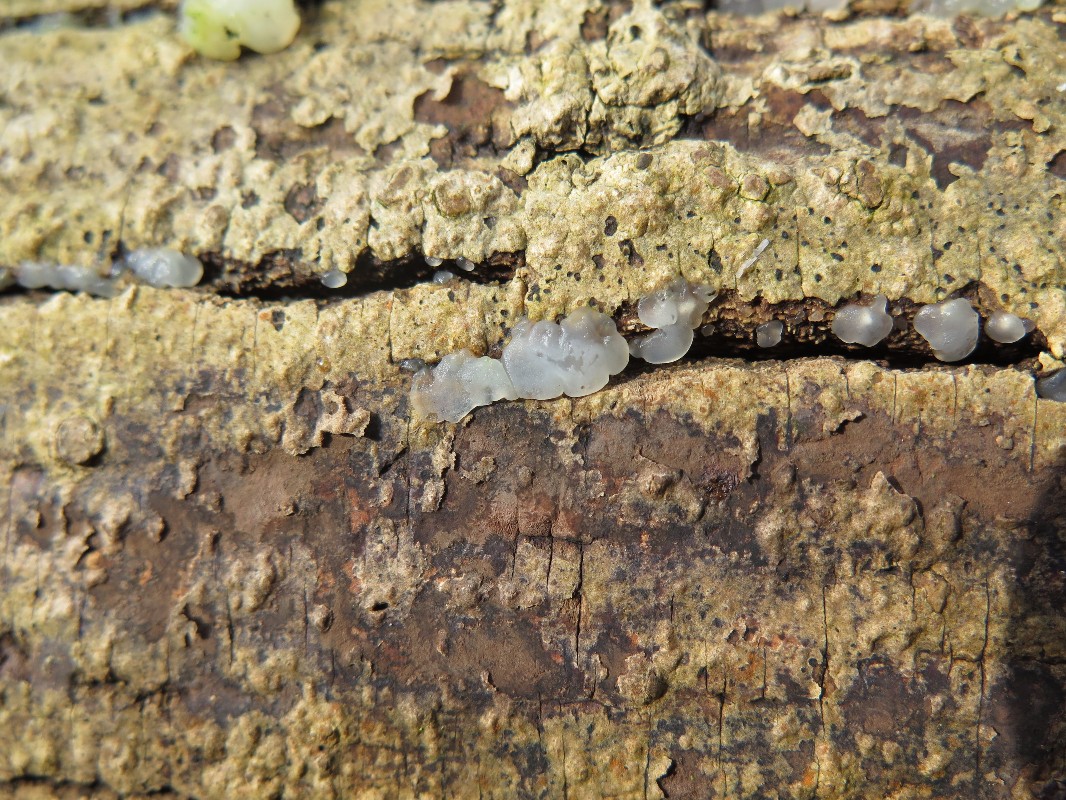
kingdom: Fungi
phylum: Basidiomycota
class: Agaricomycetes
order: Auriculariales
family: Hyaloriaceae
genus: Myxarium
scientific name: Myxarium nucleatum
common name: klar bævretop
